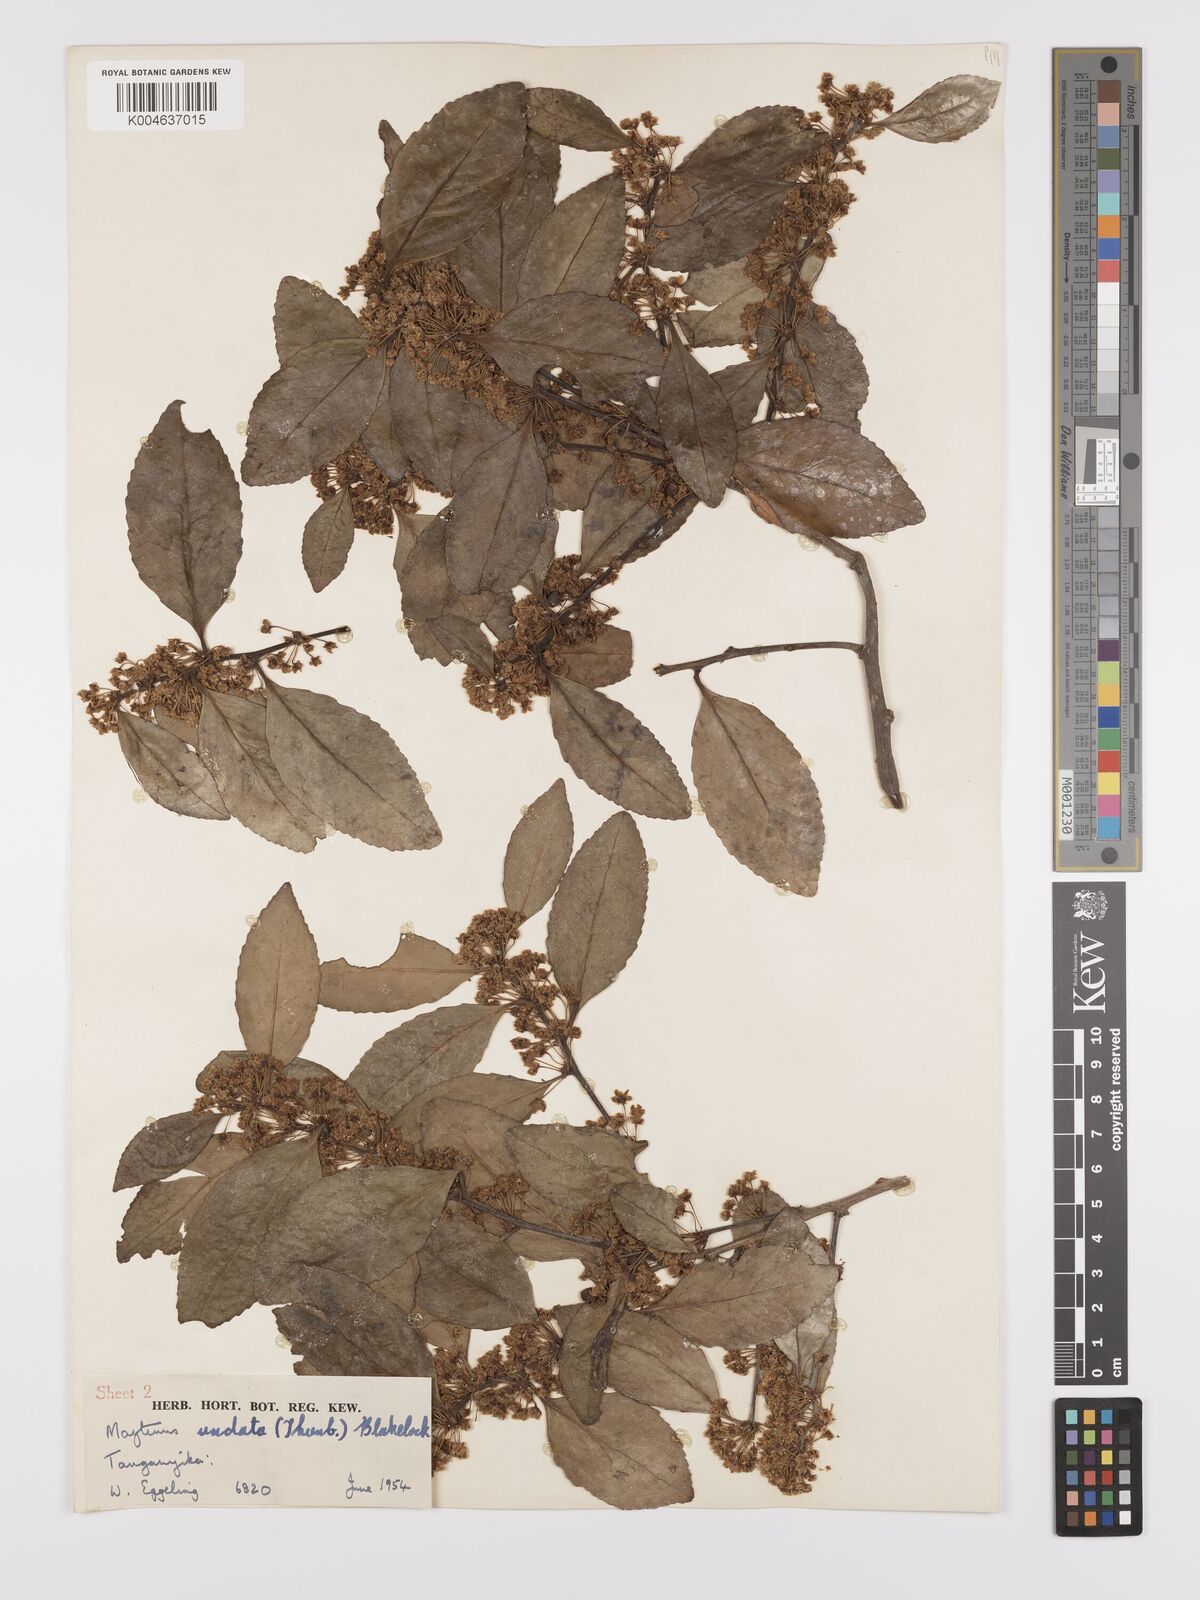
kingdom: Plantae
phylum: Tracheophyta
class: Magnoliopsida
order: Celastrales
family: Celastraceae
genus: Gymnosporia
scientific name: Gymnosporia undata
